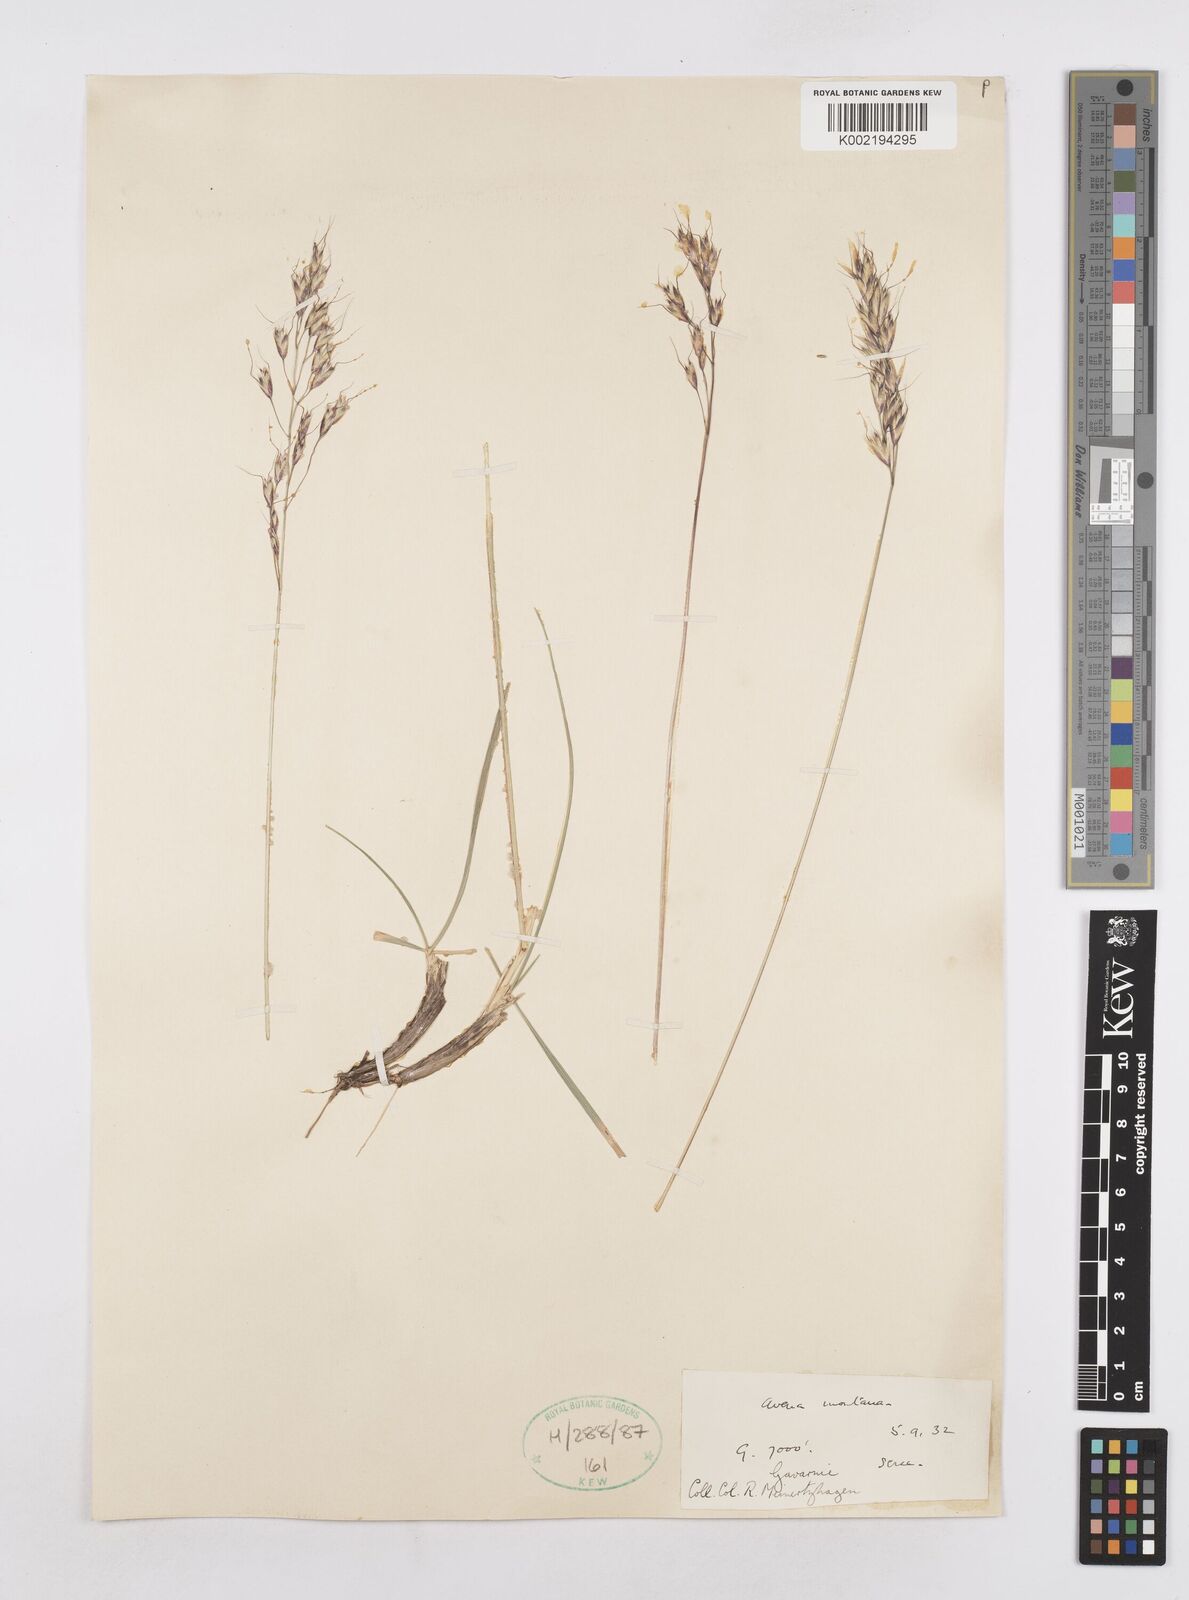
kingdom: Plantae
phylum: Tracheophyta
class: Liliopsida
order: Poales
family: Poaceae
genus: Helictotrichon
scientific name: Helictotrichon sedenense
